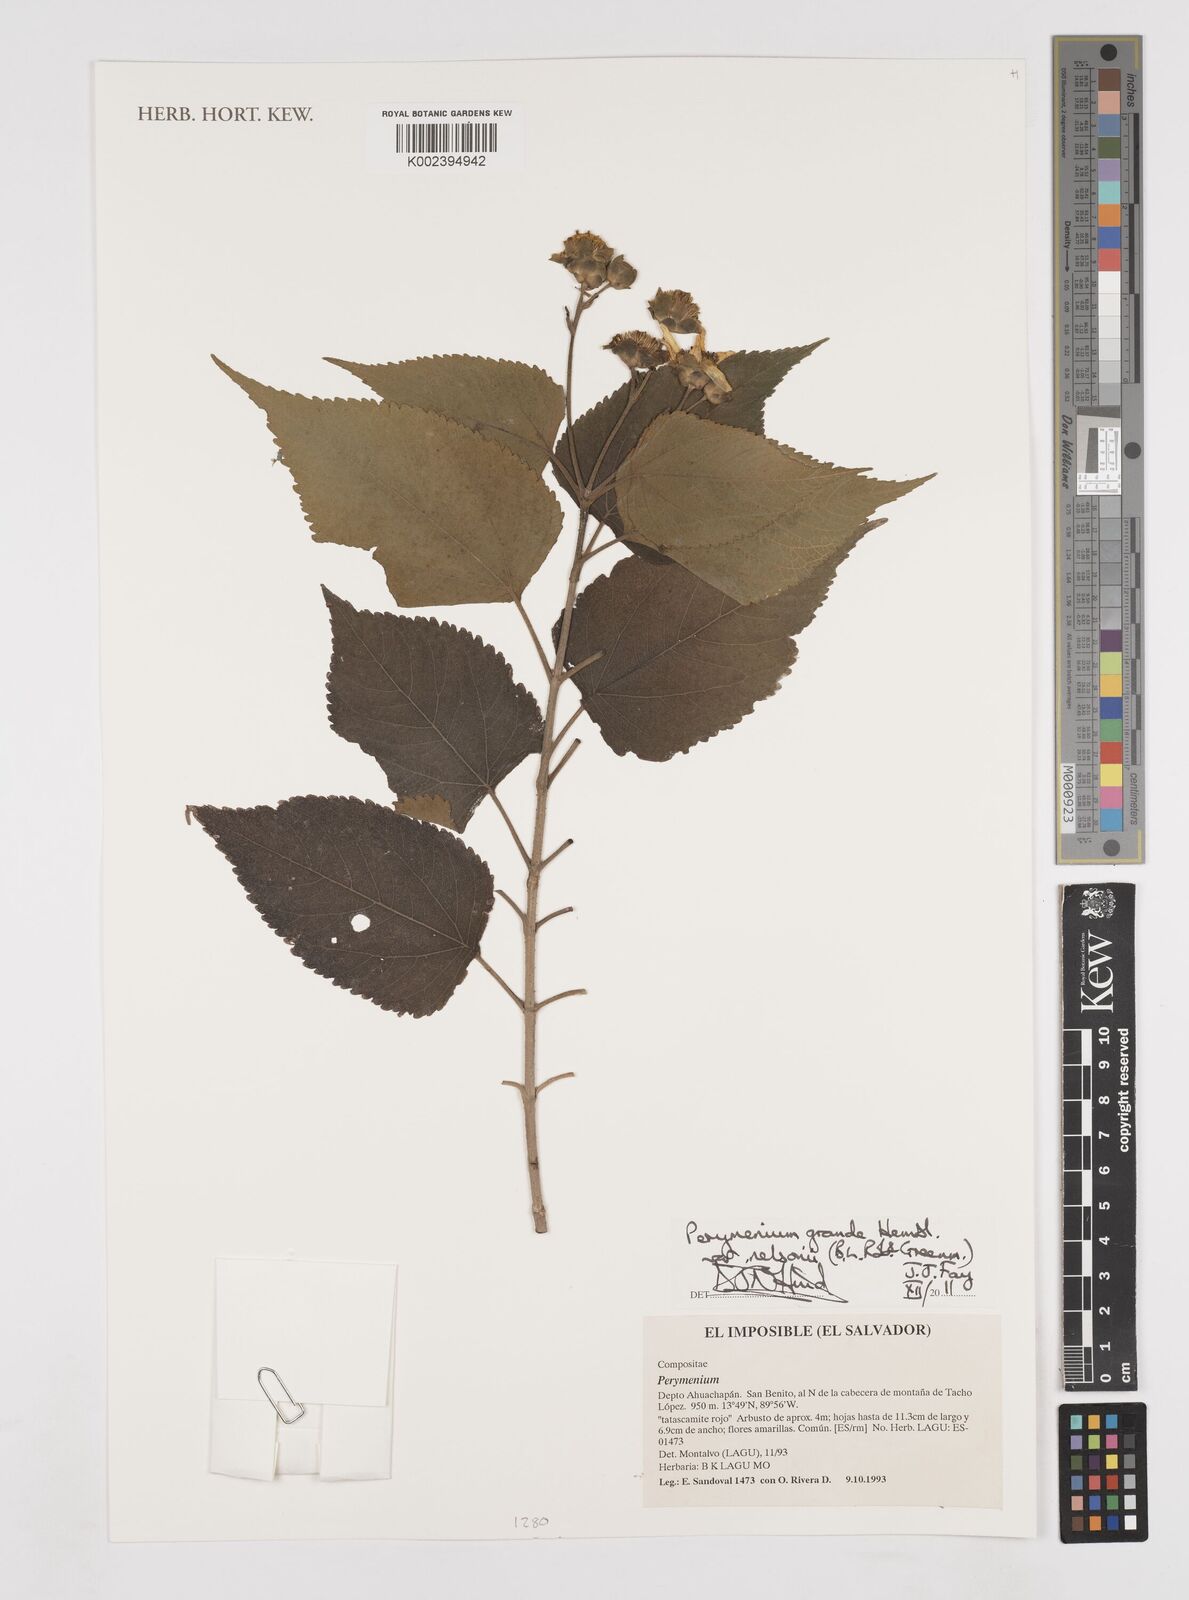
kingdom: Plantae
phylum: Tracheophyta
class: Magnoliopsida
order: Asterales
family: Asteraceae
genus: Perymenium
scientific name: Perymenium grande
